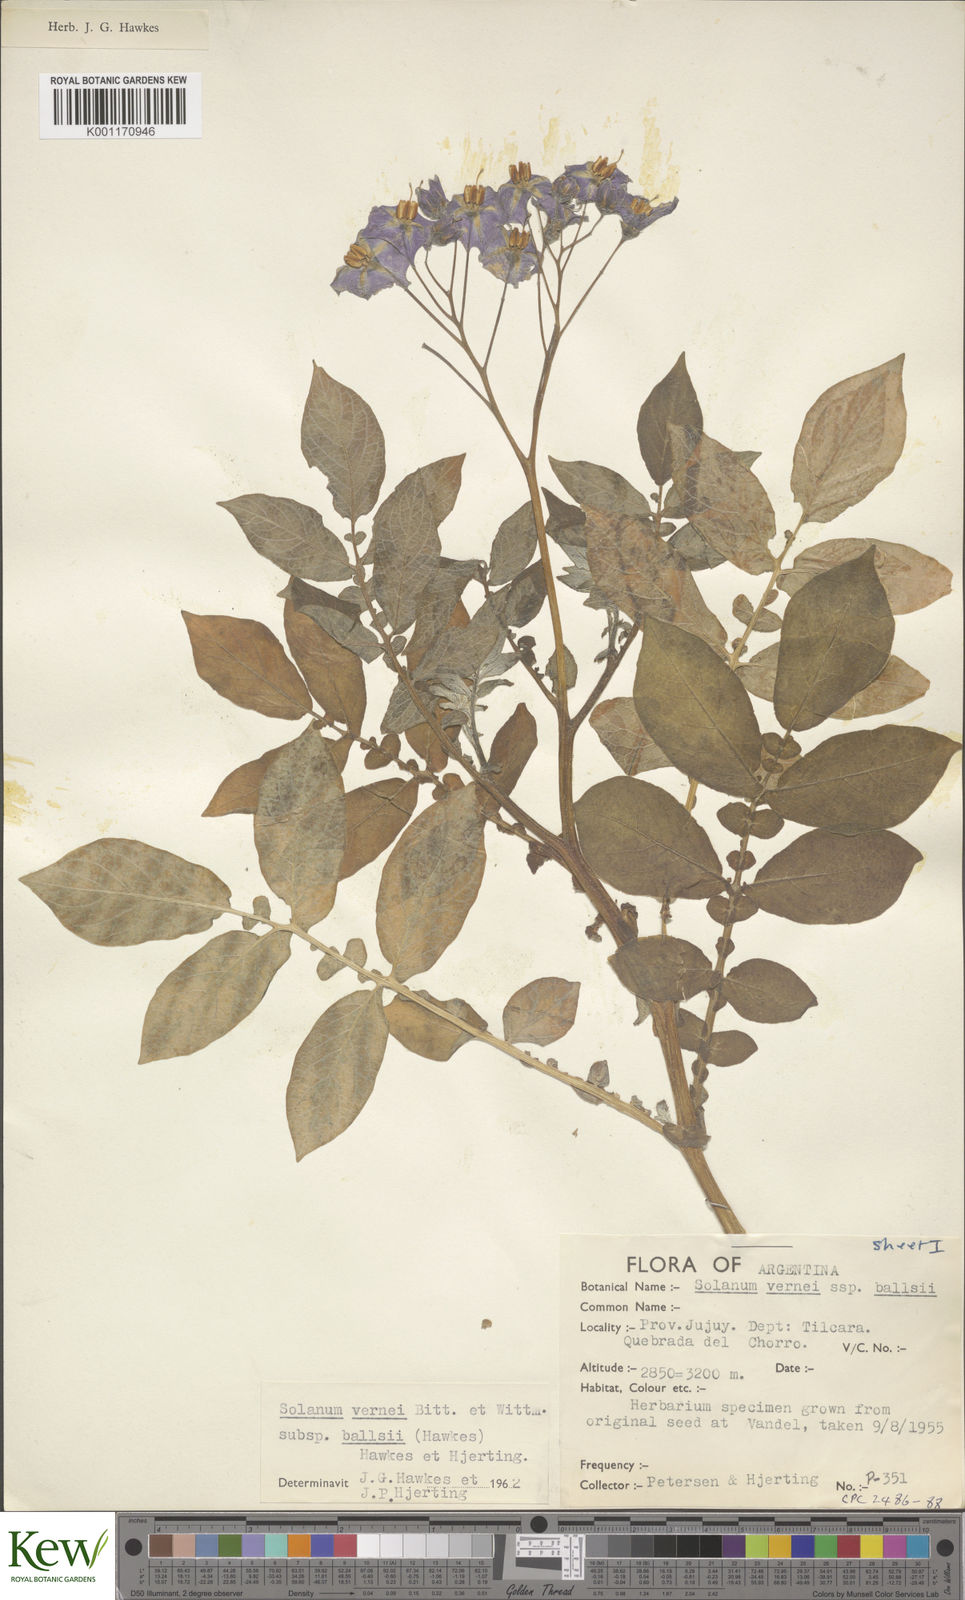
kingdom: Plantae
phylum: Tracheophyta
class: Magnoliopsida
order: Solanales
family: Solanaceae
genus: Solanum
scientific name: Solanum vernei
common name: Purple potato
